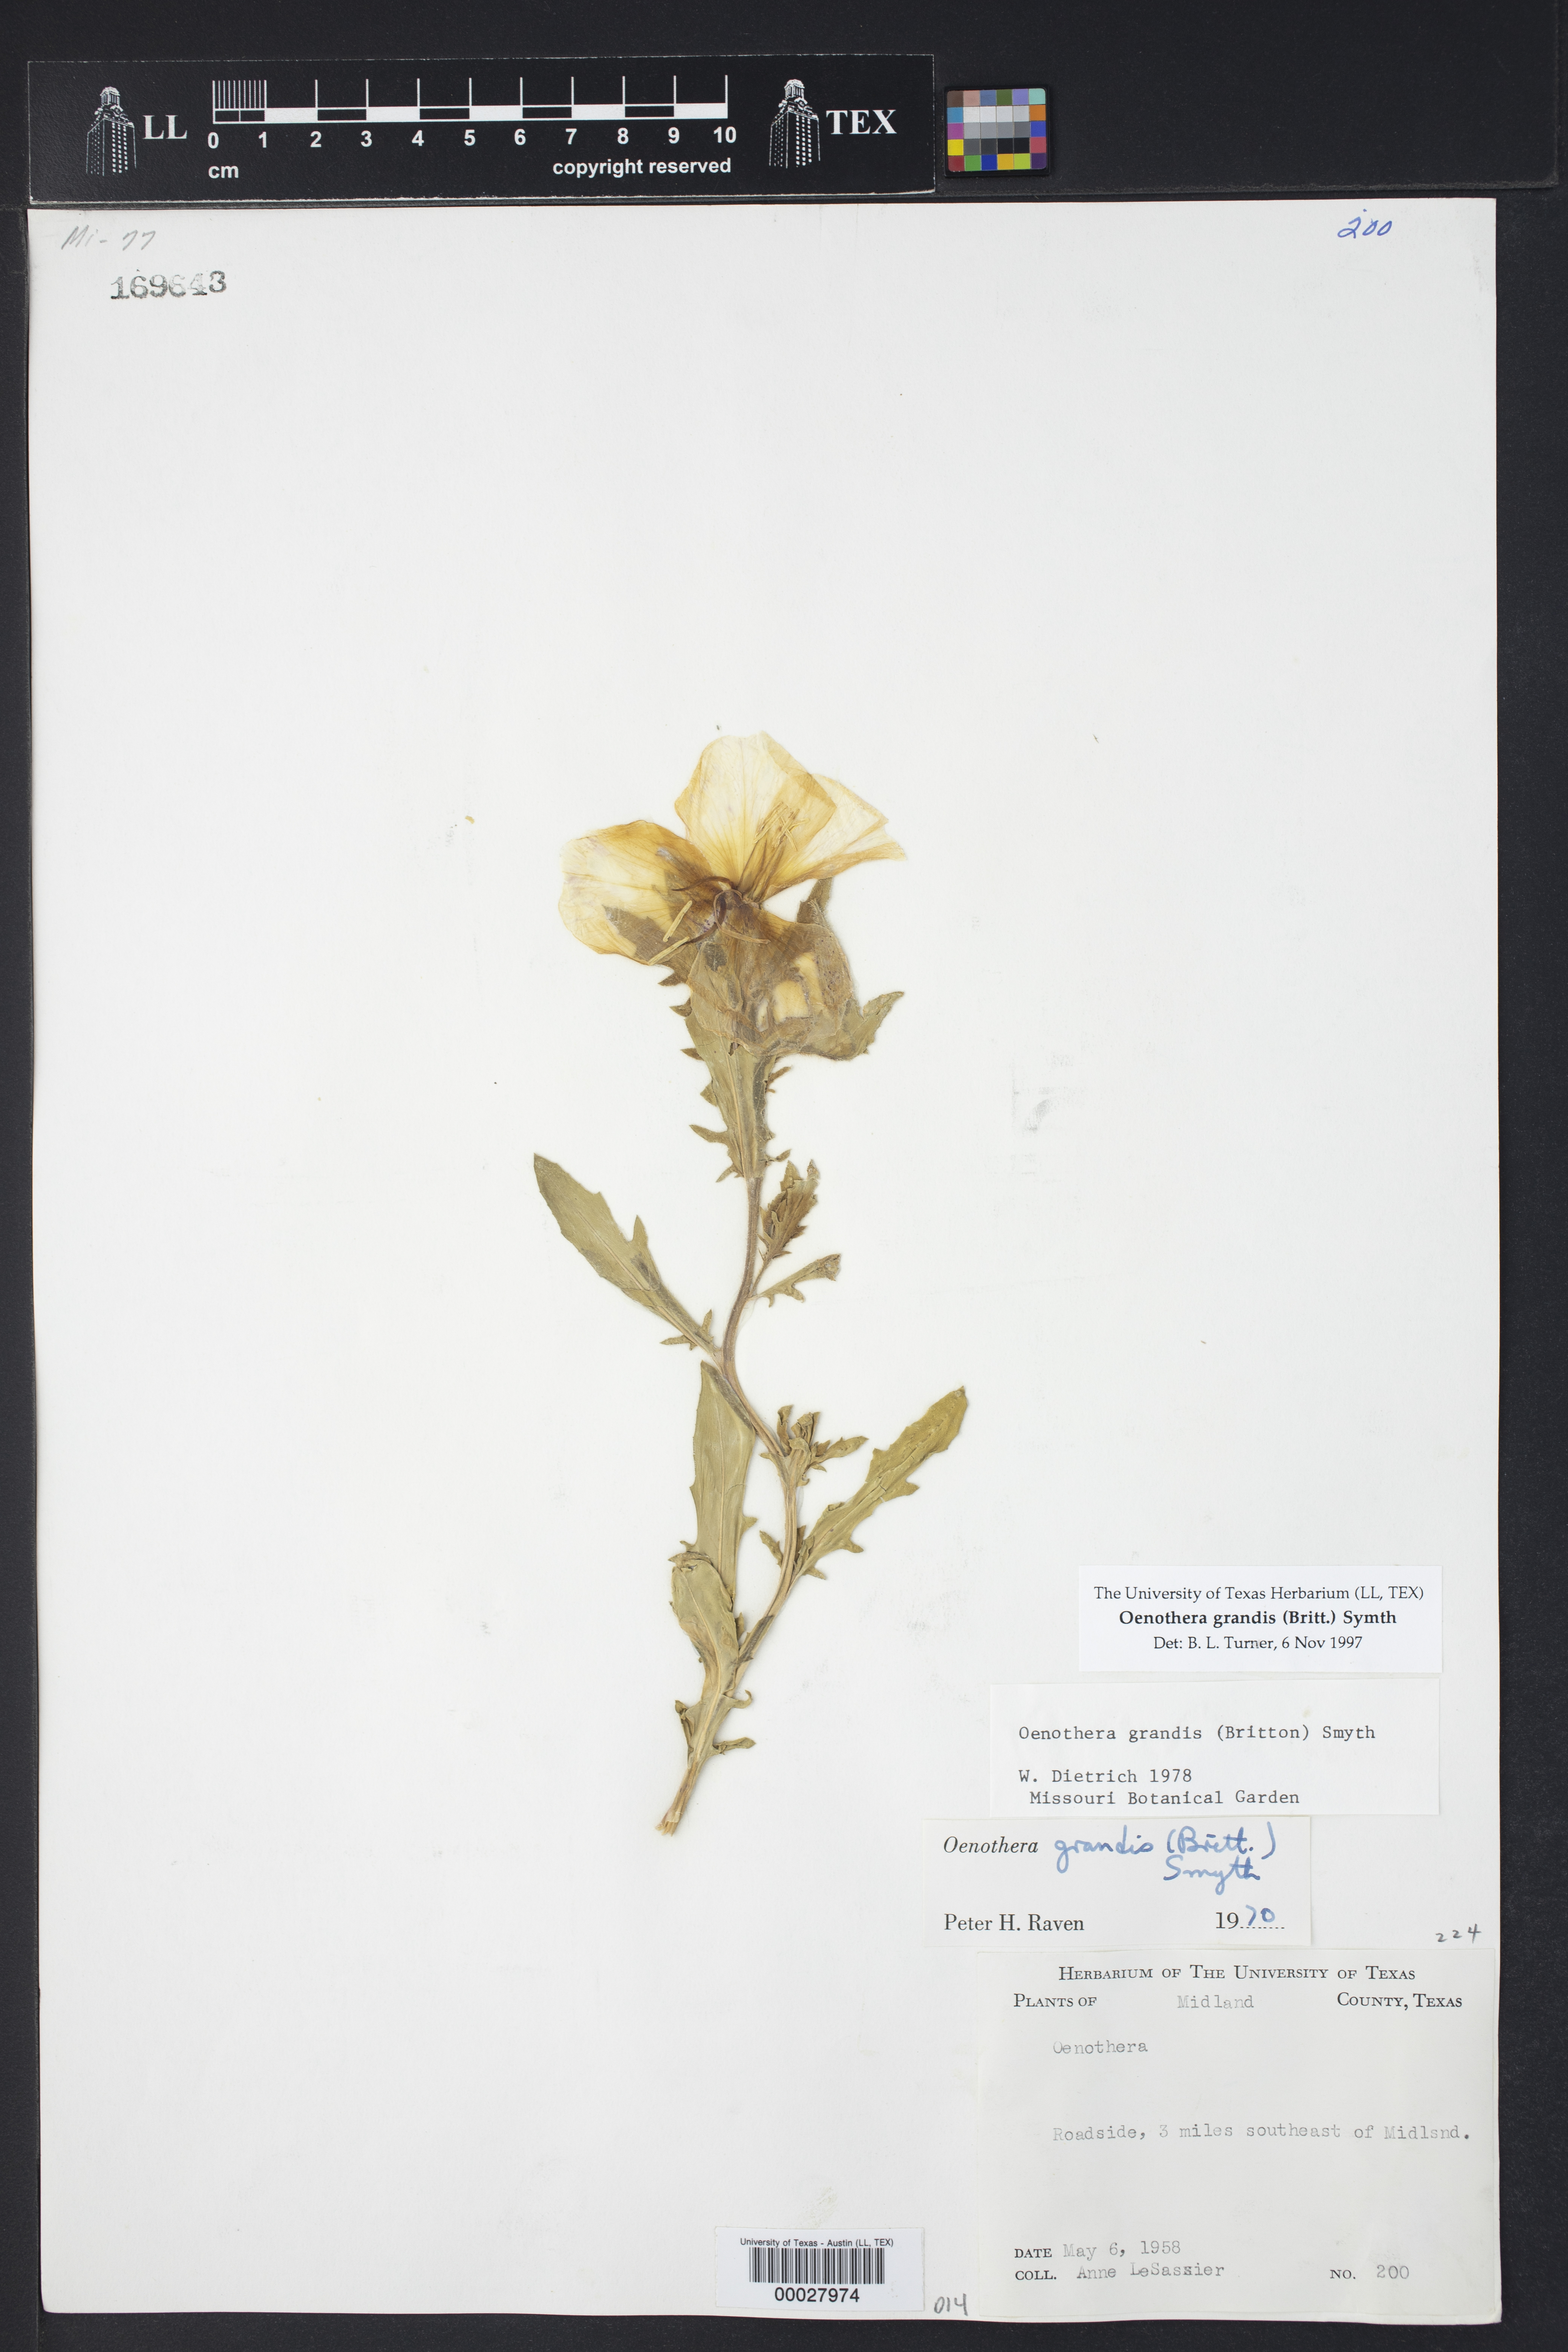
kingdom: Plantae
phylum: Tracheophyta
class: Magnoliopsida
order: Myrtales
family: Onagraceae
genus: Oenothera
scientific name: Oenothera grandis
